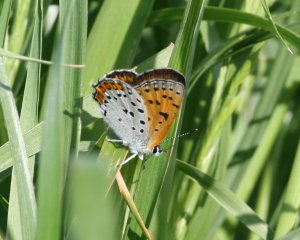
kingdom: Animalia
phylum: Arthropoda
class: Insecta
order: Lepidoptera
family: Sesiidae
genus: Sesia
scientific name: Sesia Lycaena hyllus
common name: Bronze Copper
